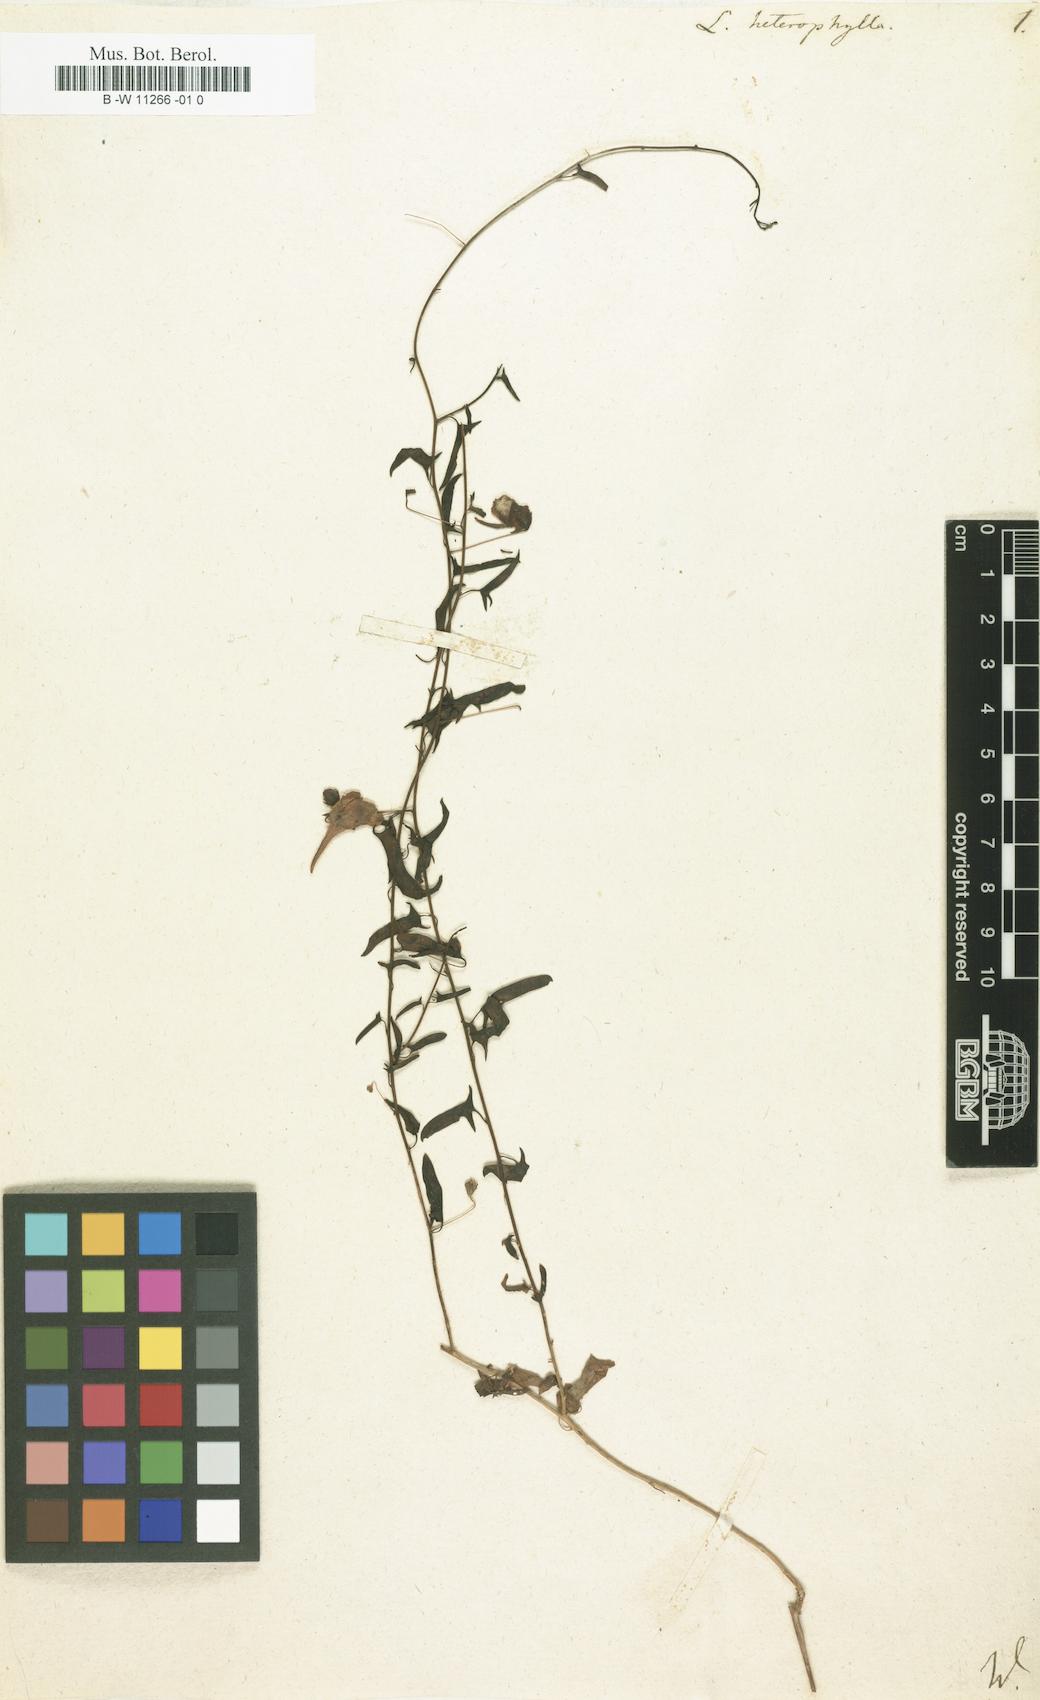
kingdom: Plantae
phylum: Tracheophyta
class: Magnoliopsida
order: Lamiales
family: Plantaginaceae
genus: Linaria
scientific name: Linaria heterophylla
